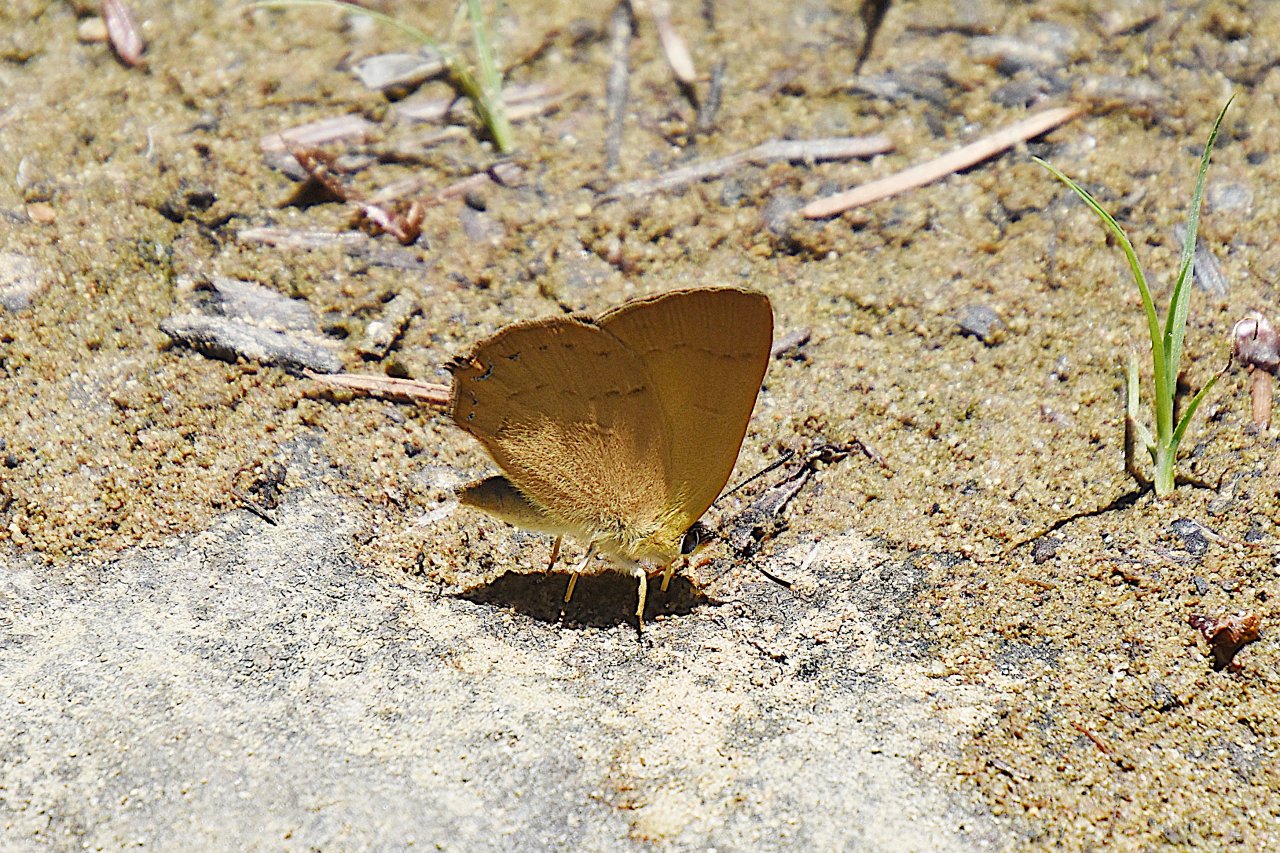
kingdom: Animalia
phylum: Arthropoda
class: Insecta
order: Lepidoptera
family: Lycaenidae
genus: Habrodais
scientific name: Habrodais grunus
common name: Golden Hairstreak
